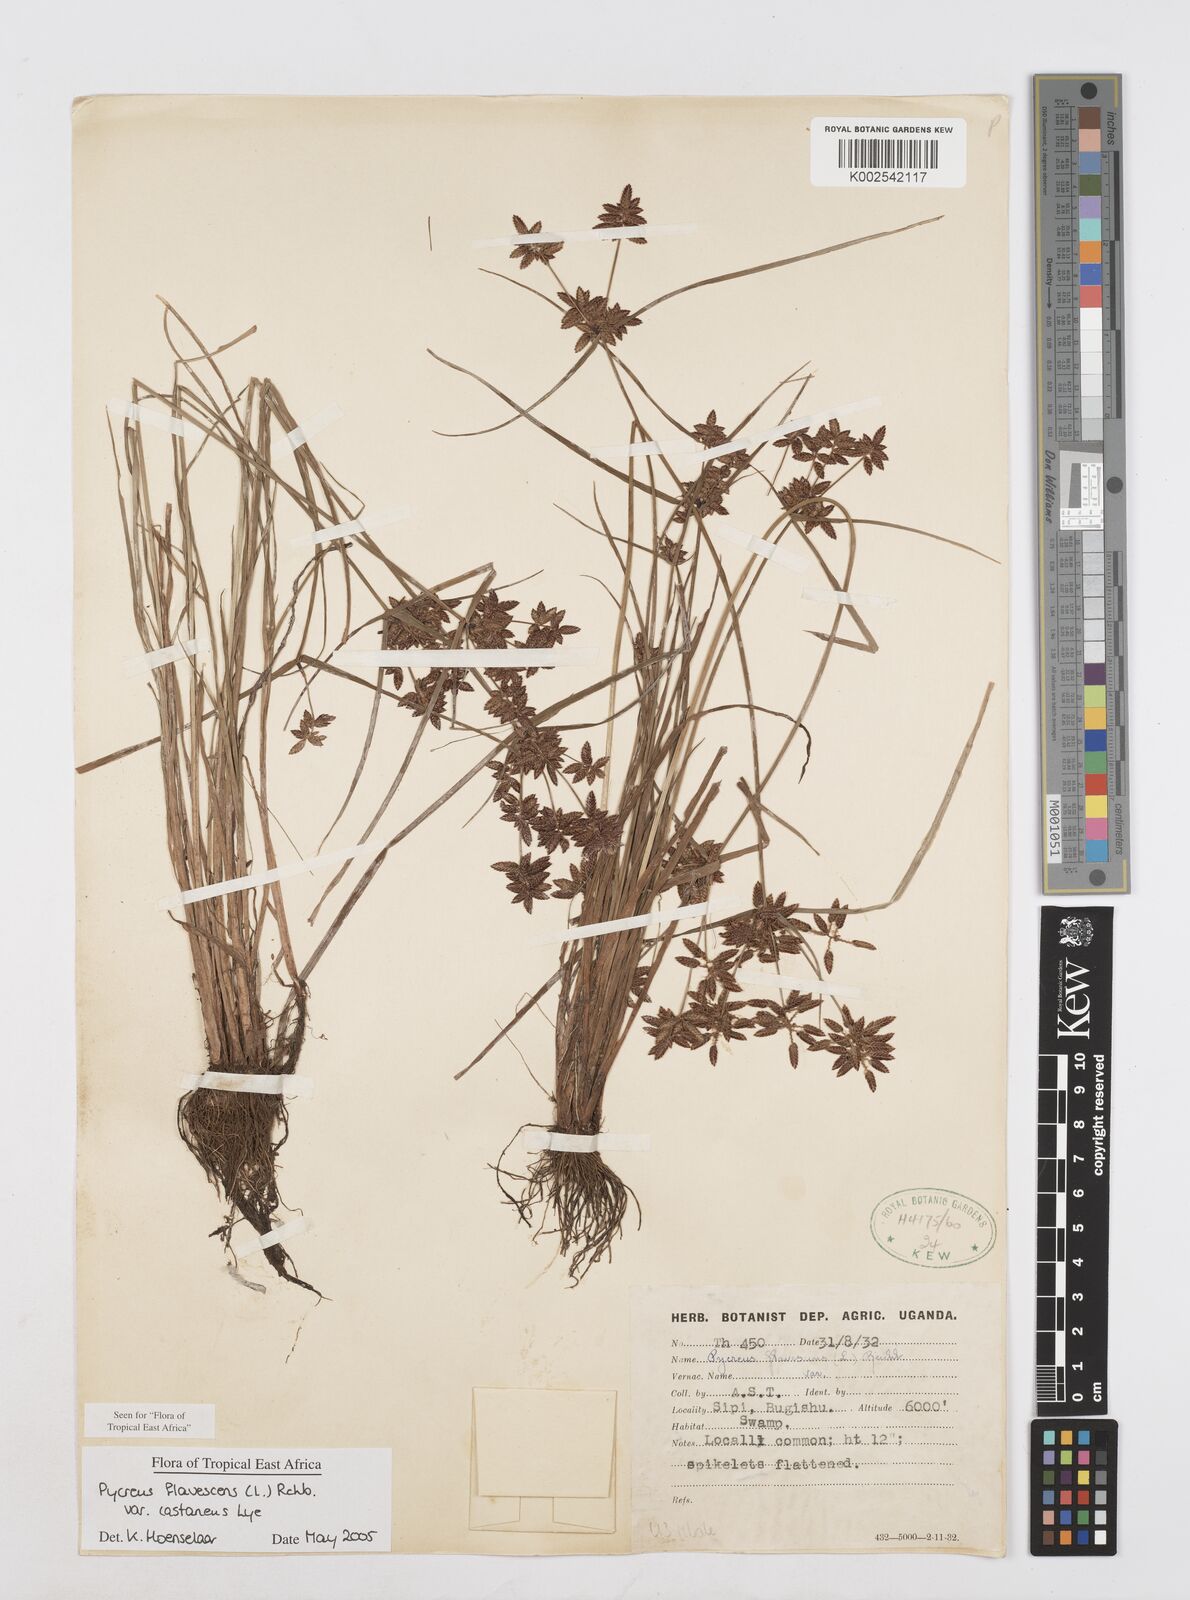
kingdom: Plantae
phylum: Tracheophyta
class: Liliopsida
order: Poales
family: Cyperaceae
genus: Cyperus
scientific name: Cyperus flavescens
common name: Yellow galingale
